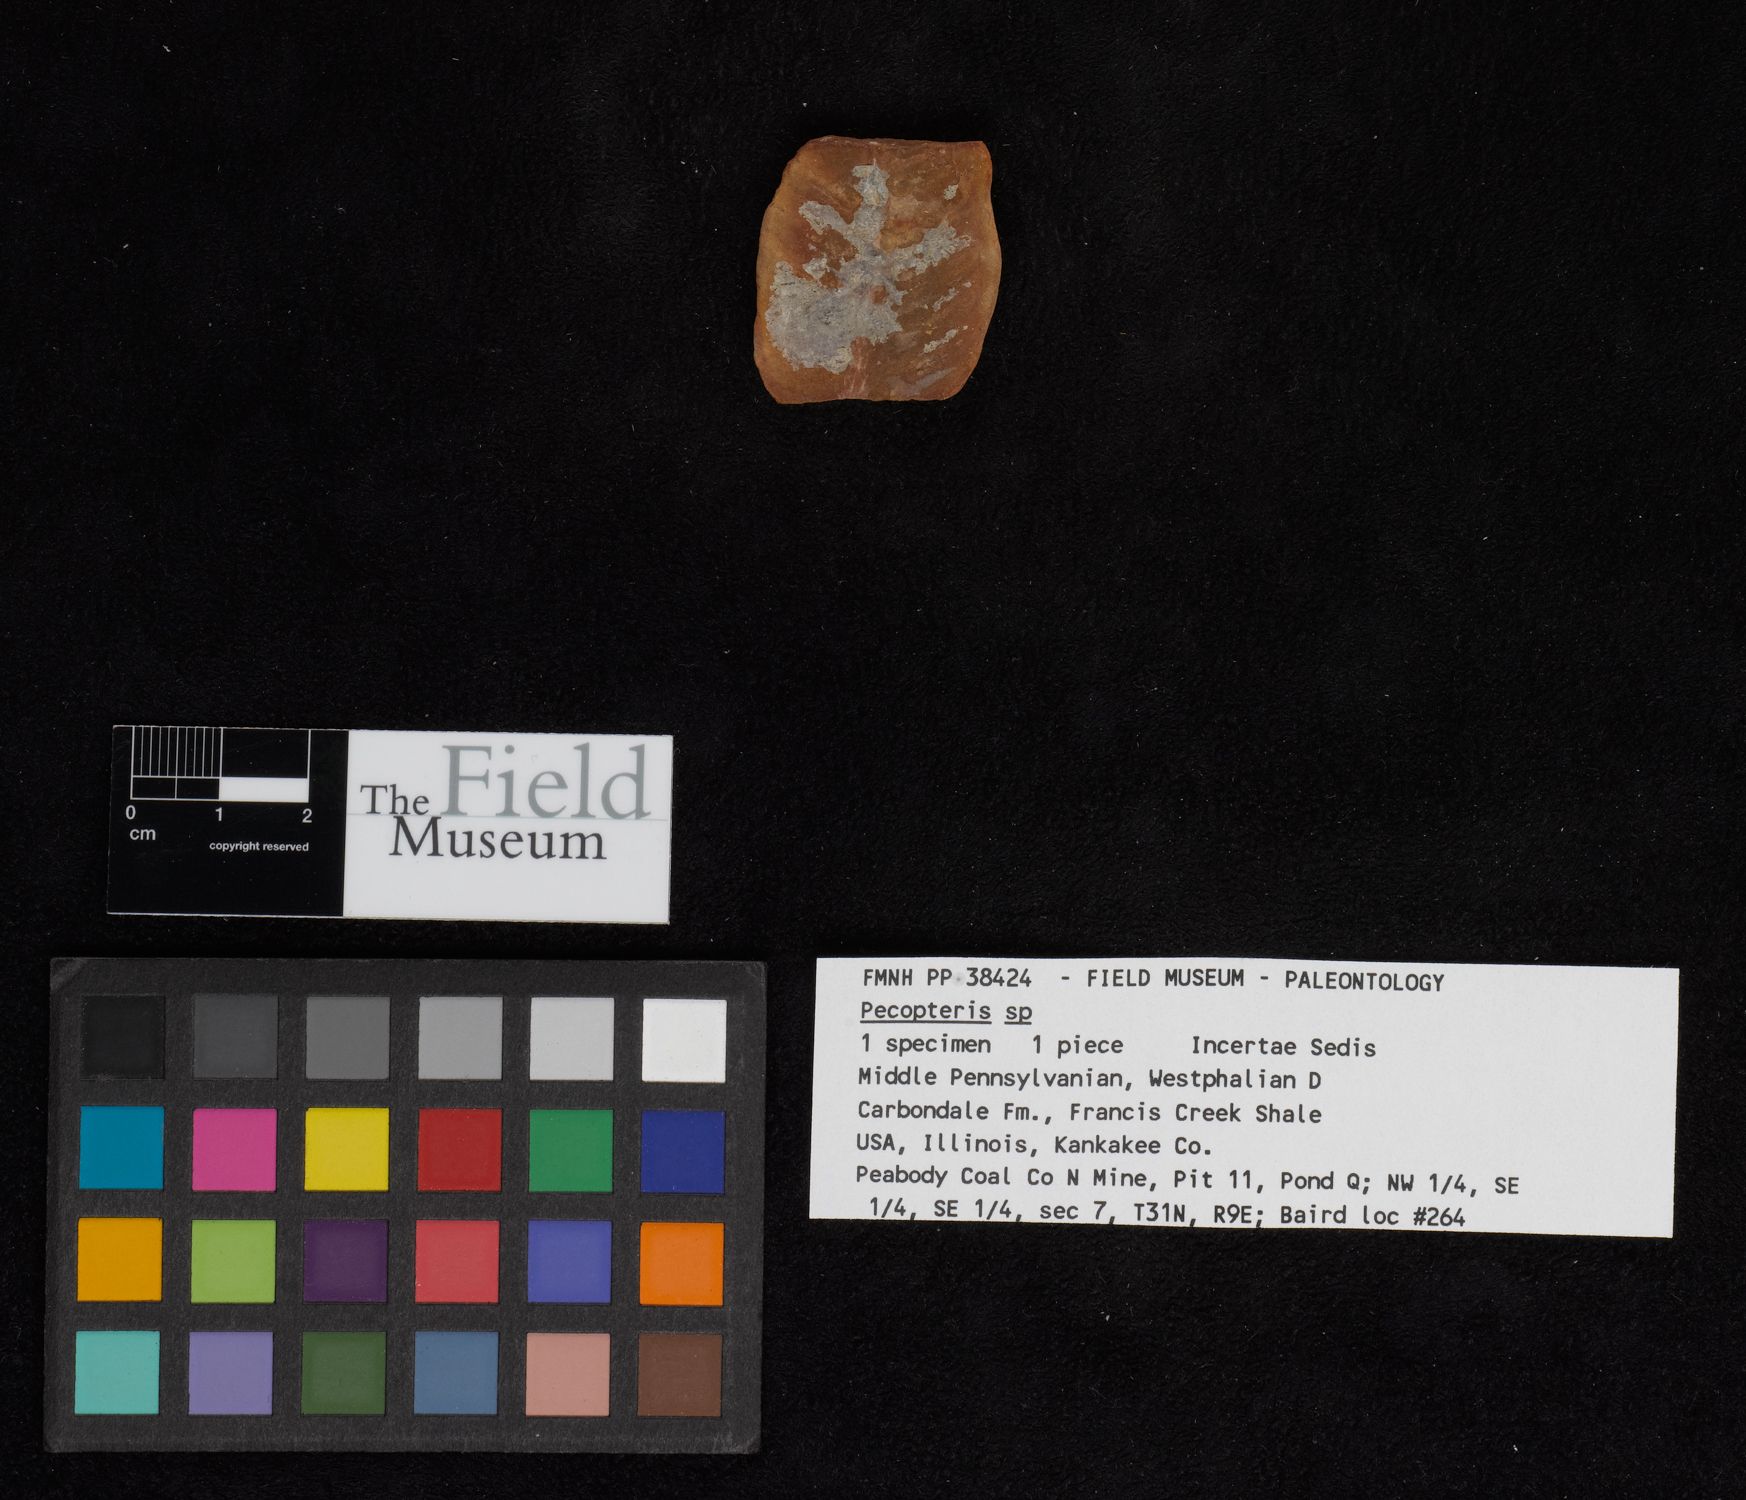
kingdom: Plantae
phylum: Tracheophyta
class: Polypodiopsida
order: Marattiales
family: Asterothecaceae
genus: Pecopteris
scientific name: Pecopteris
